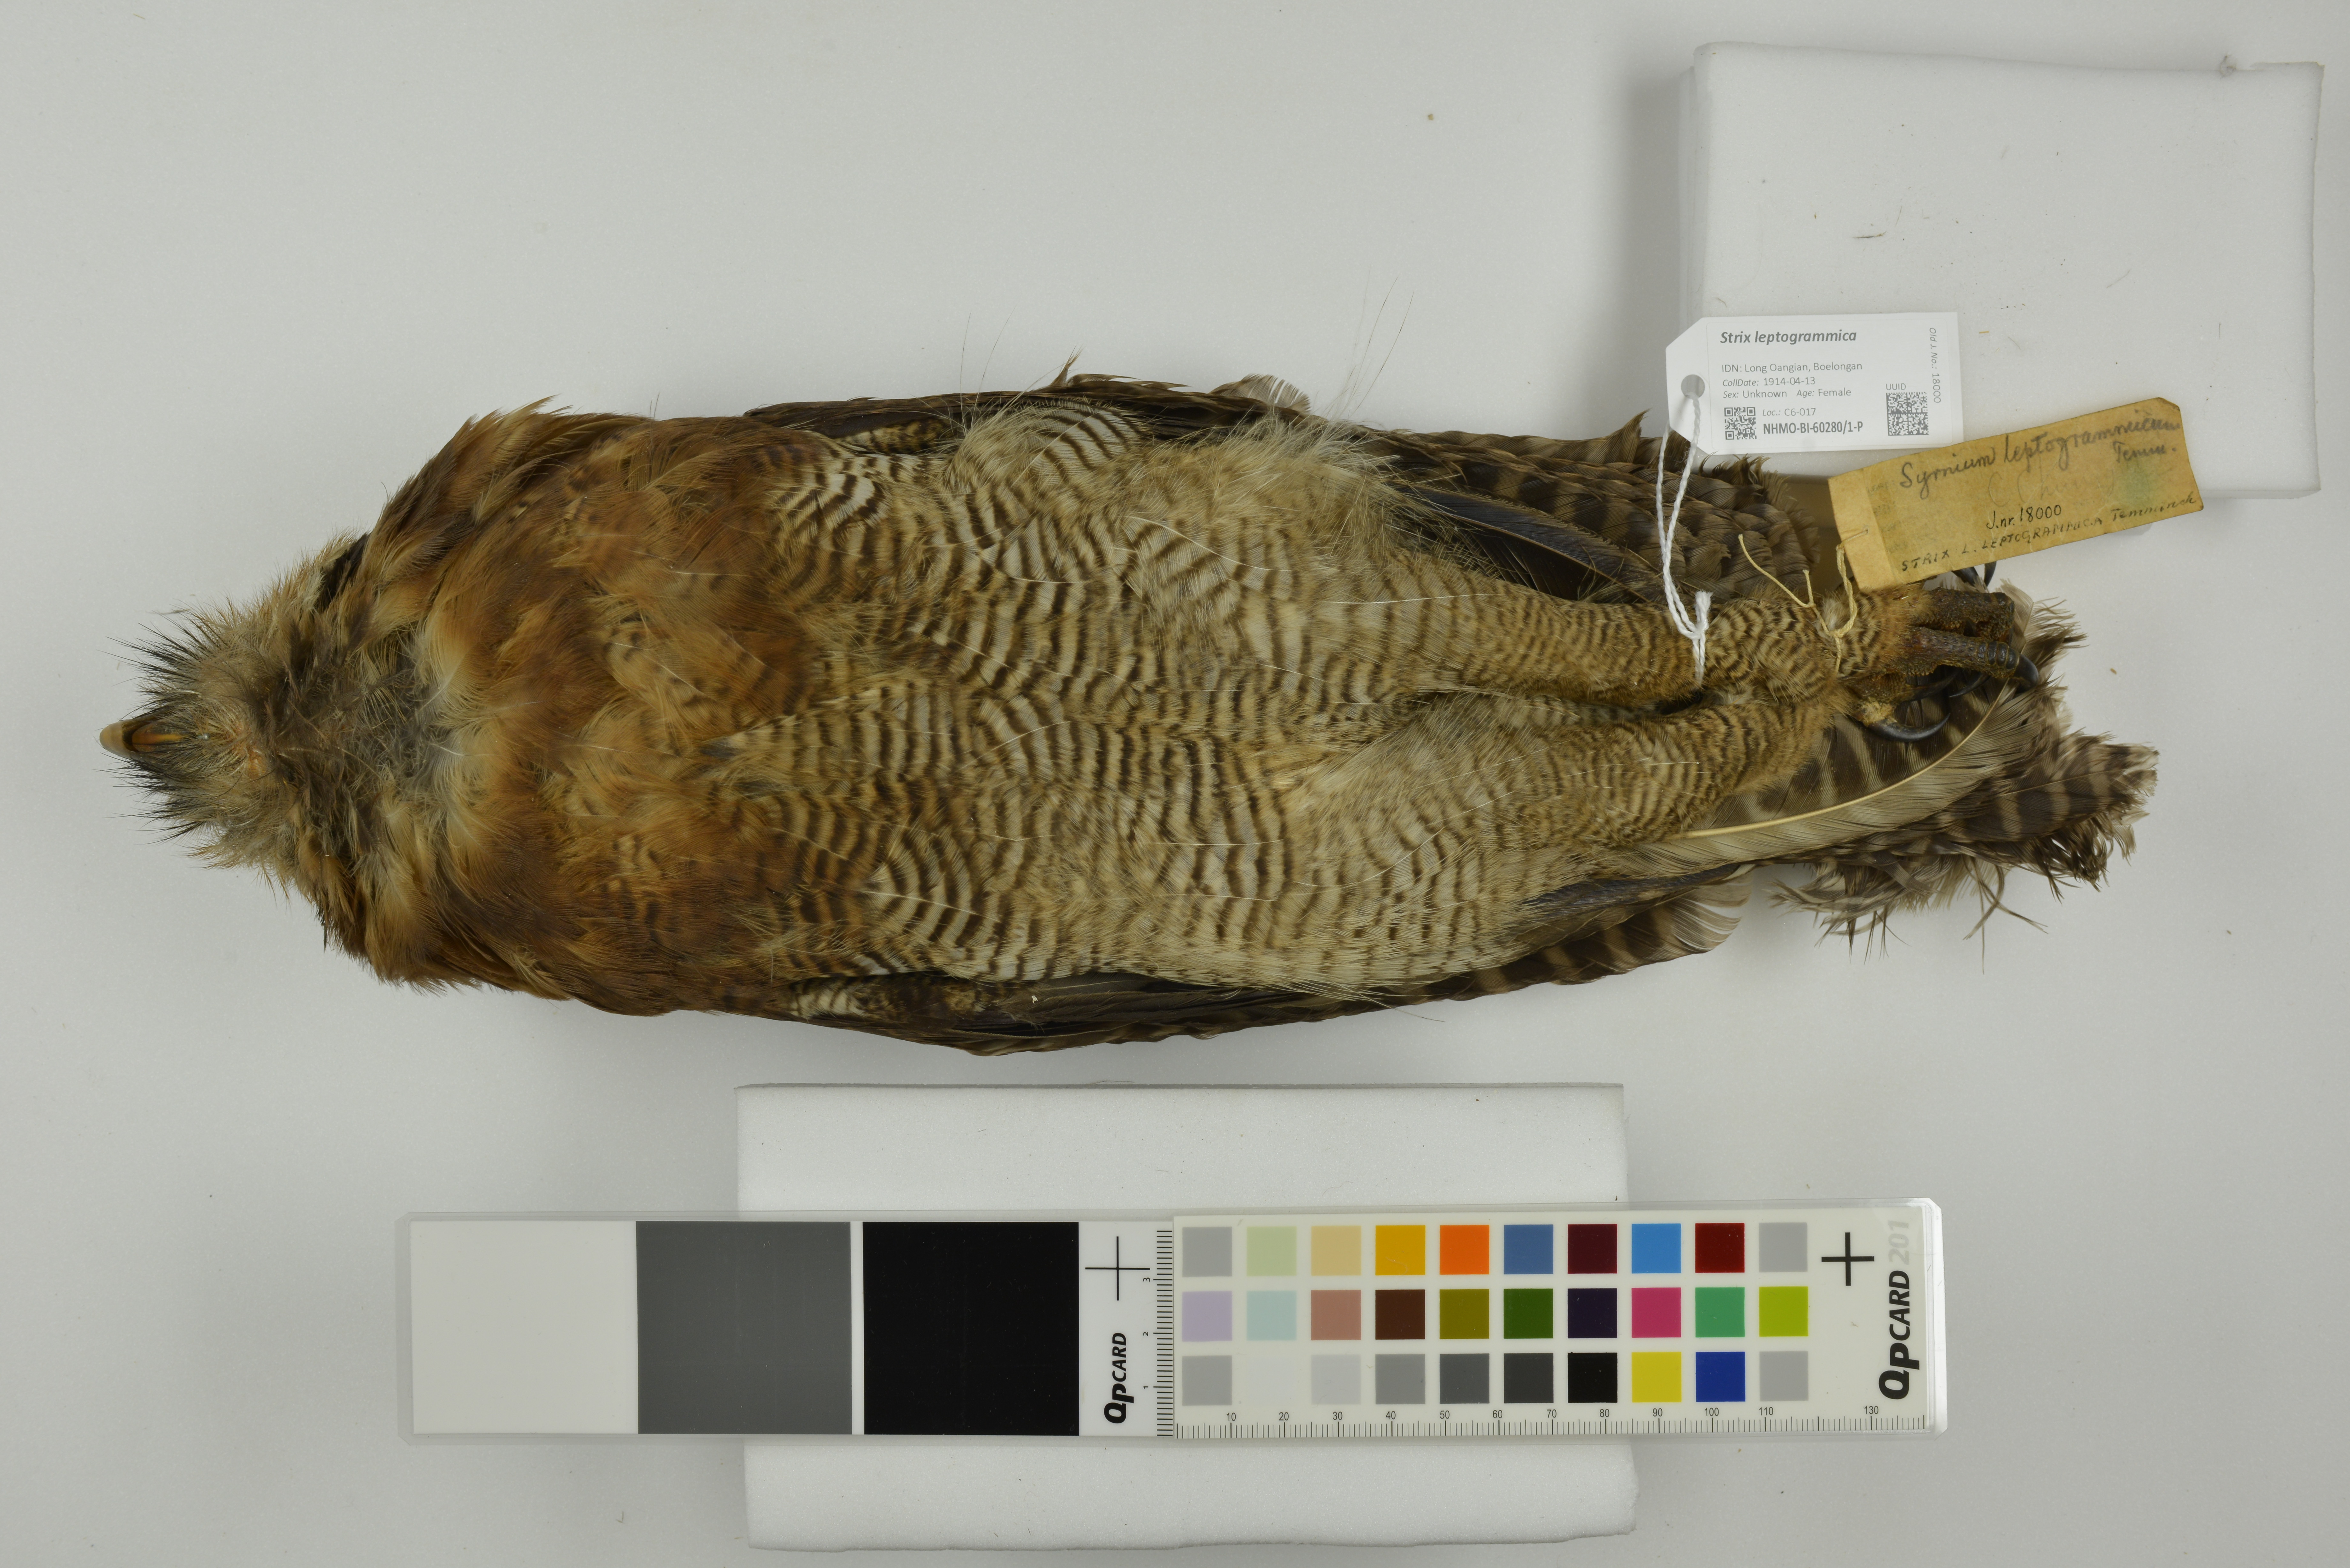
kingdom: Animalia
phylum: Chordata
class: Aves
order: Strigiformes
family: Strigidae
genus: Strix
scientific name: Strix leptogrammica
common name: Brown wood owl
